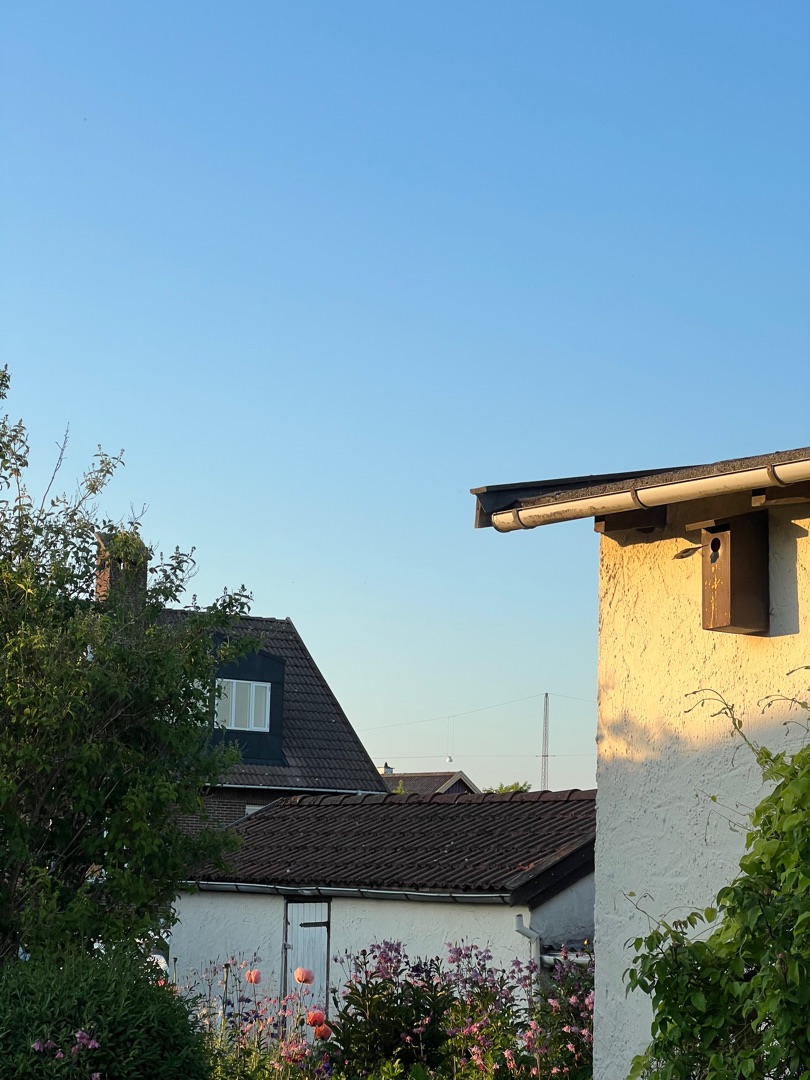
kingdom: Animalia
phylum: Chordata
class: Aves
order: Passeriformes
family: Muscicapidae
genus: Phoenicurus
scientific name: Phoenicurus phoenicurus
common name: Rødstjert
